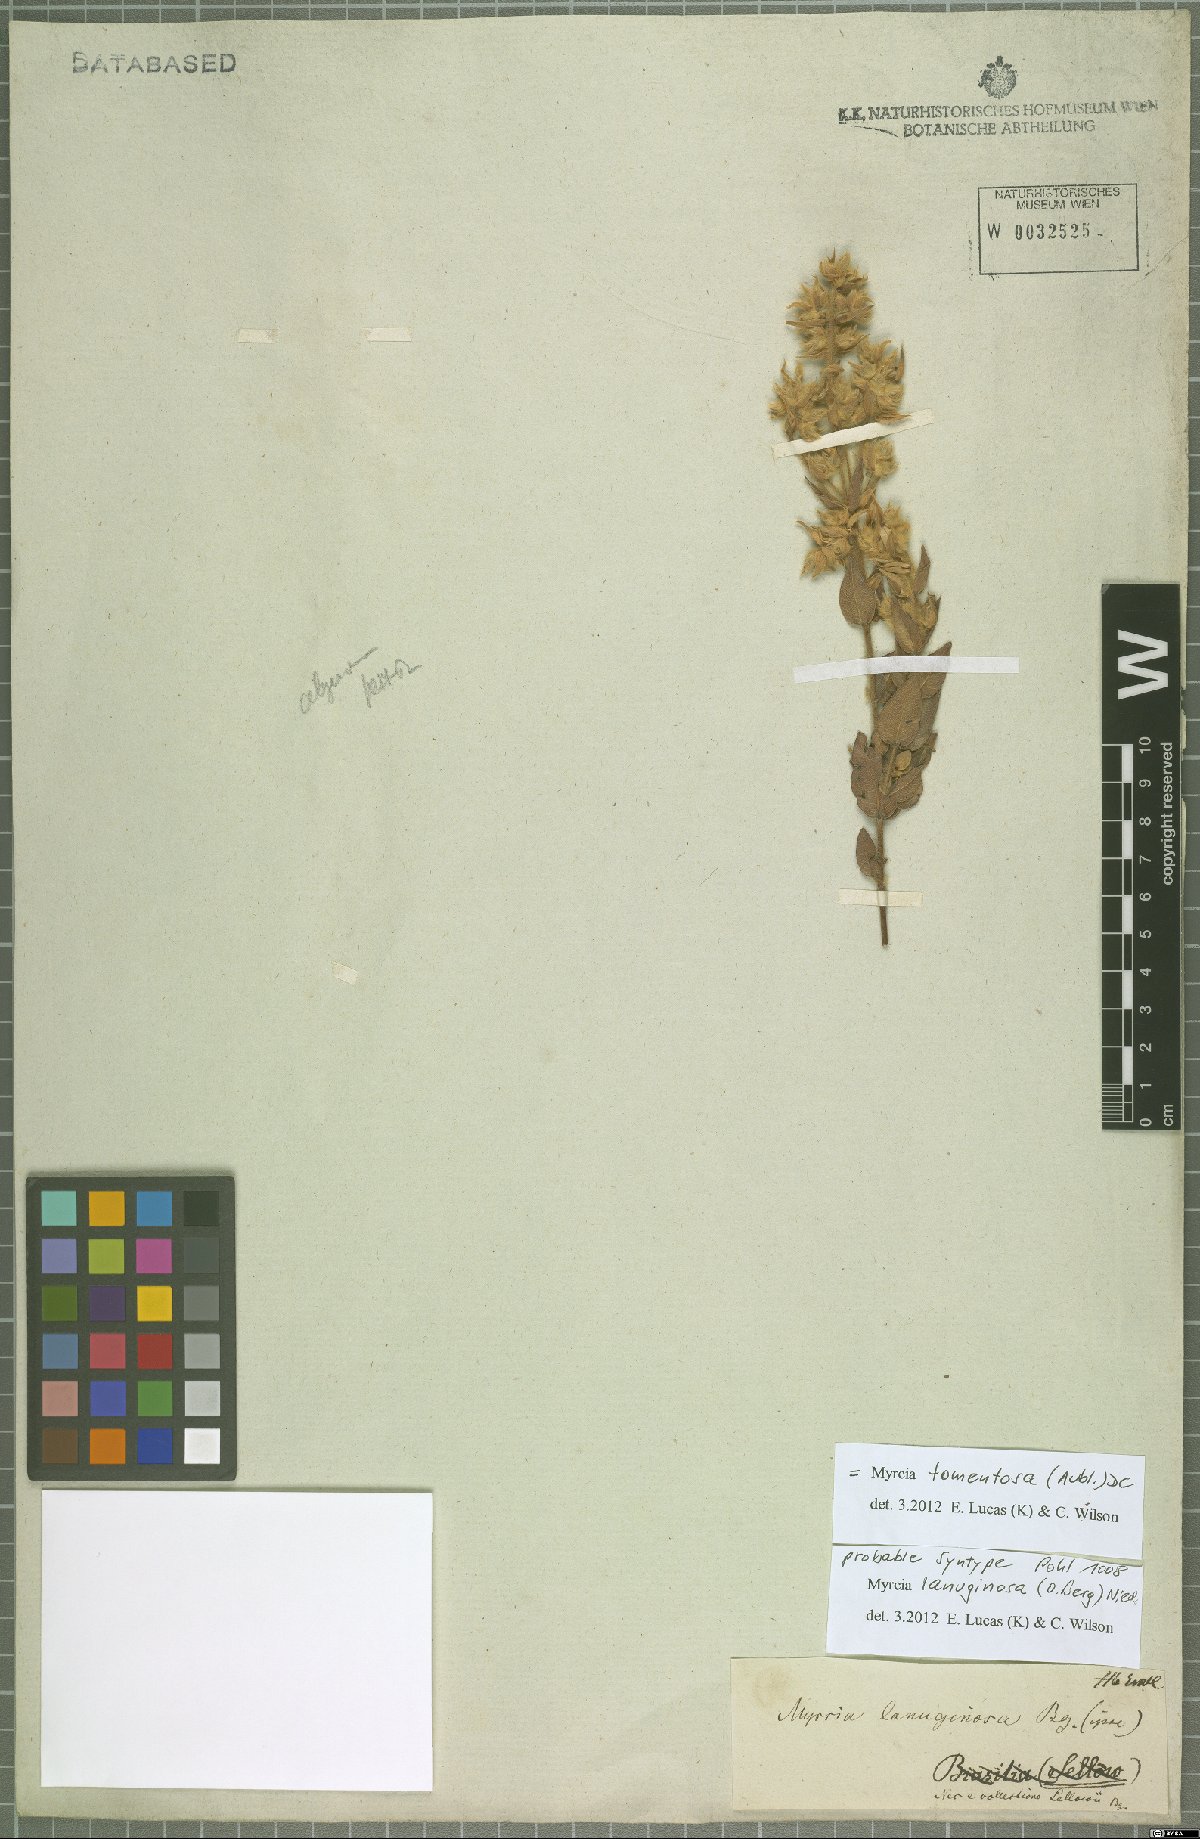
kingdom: Plantae
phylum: Tracheophyta
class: Magnoliopsida
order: Myrtales
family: Myrtaceae
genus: Myrcia
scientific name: Myrcia lanuginosa
